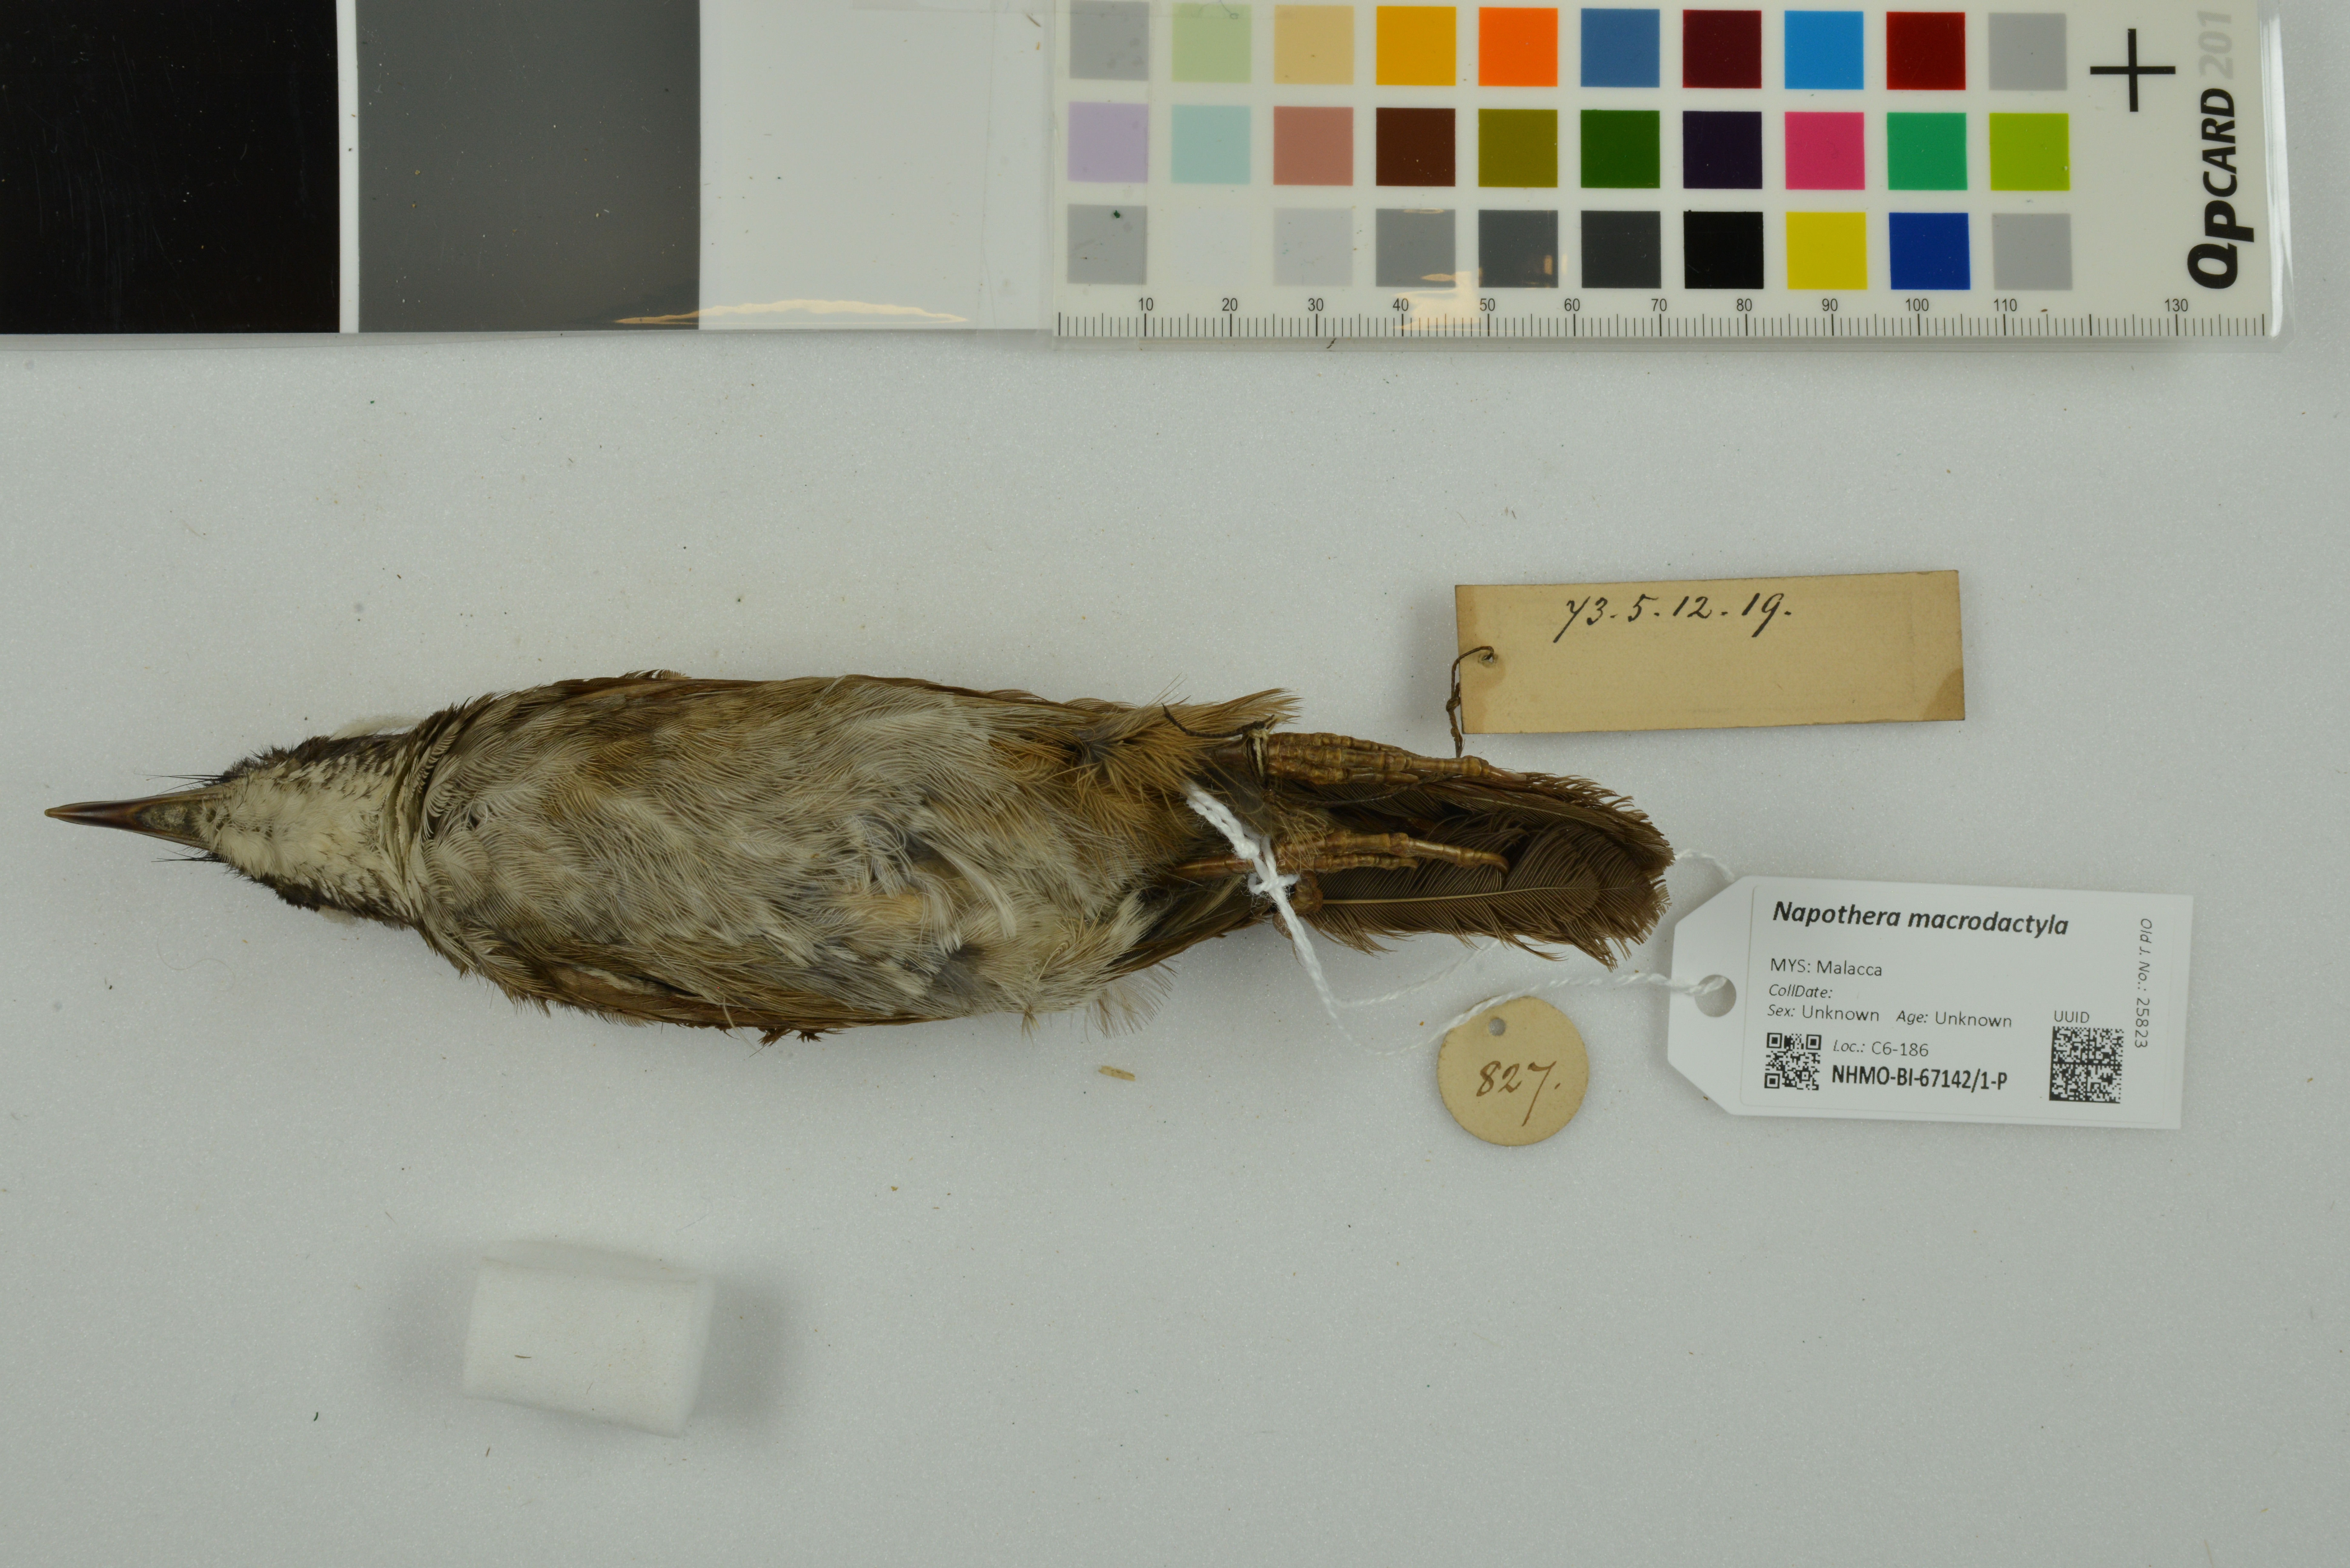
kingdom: Animalia
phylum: Chordata
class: Aves
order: Passeriformes
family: Pellorneidae
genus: Napothera
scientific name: Napothera macrodactyla
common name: Large wren-babbler
